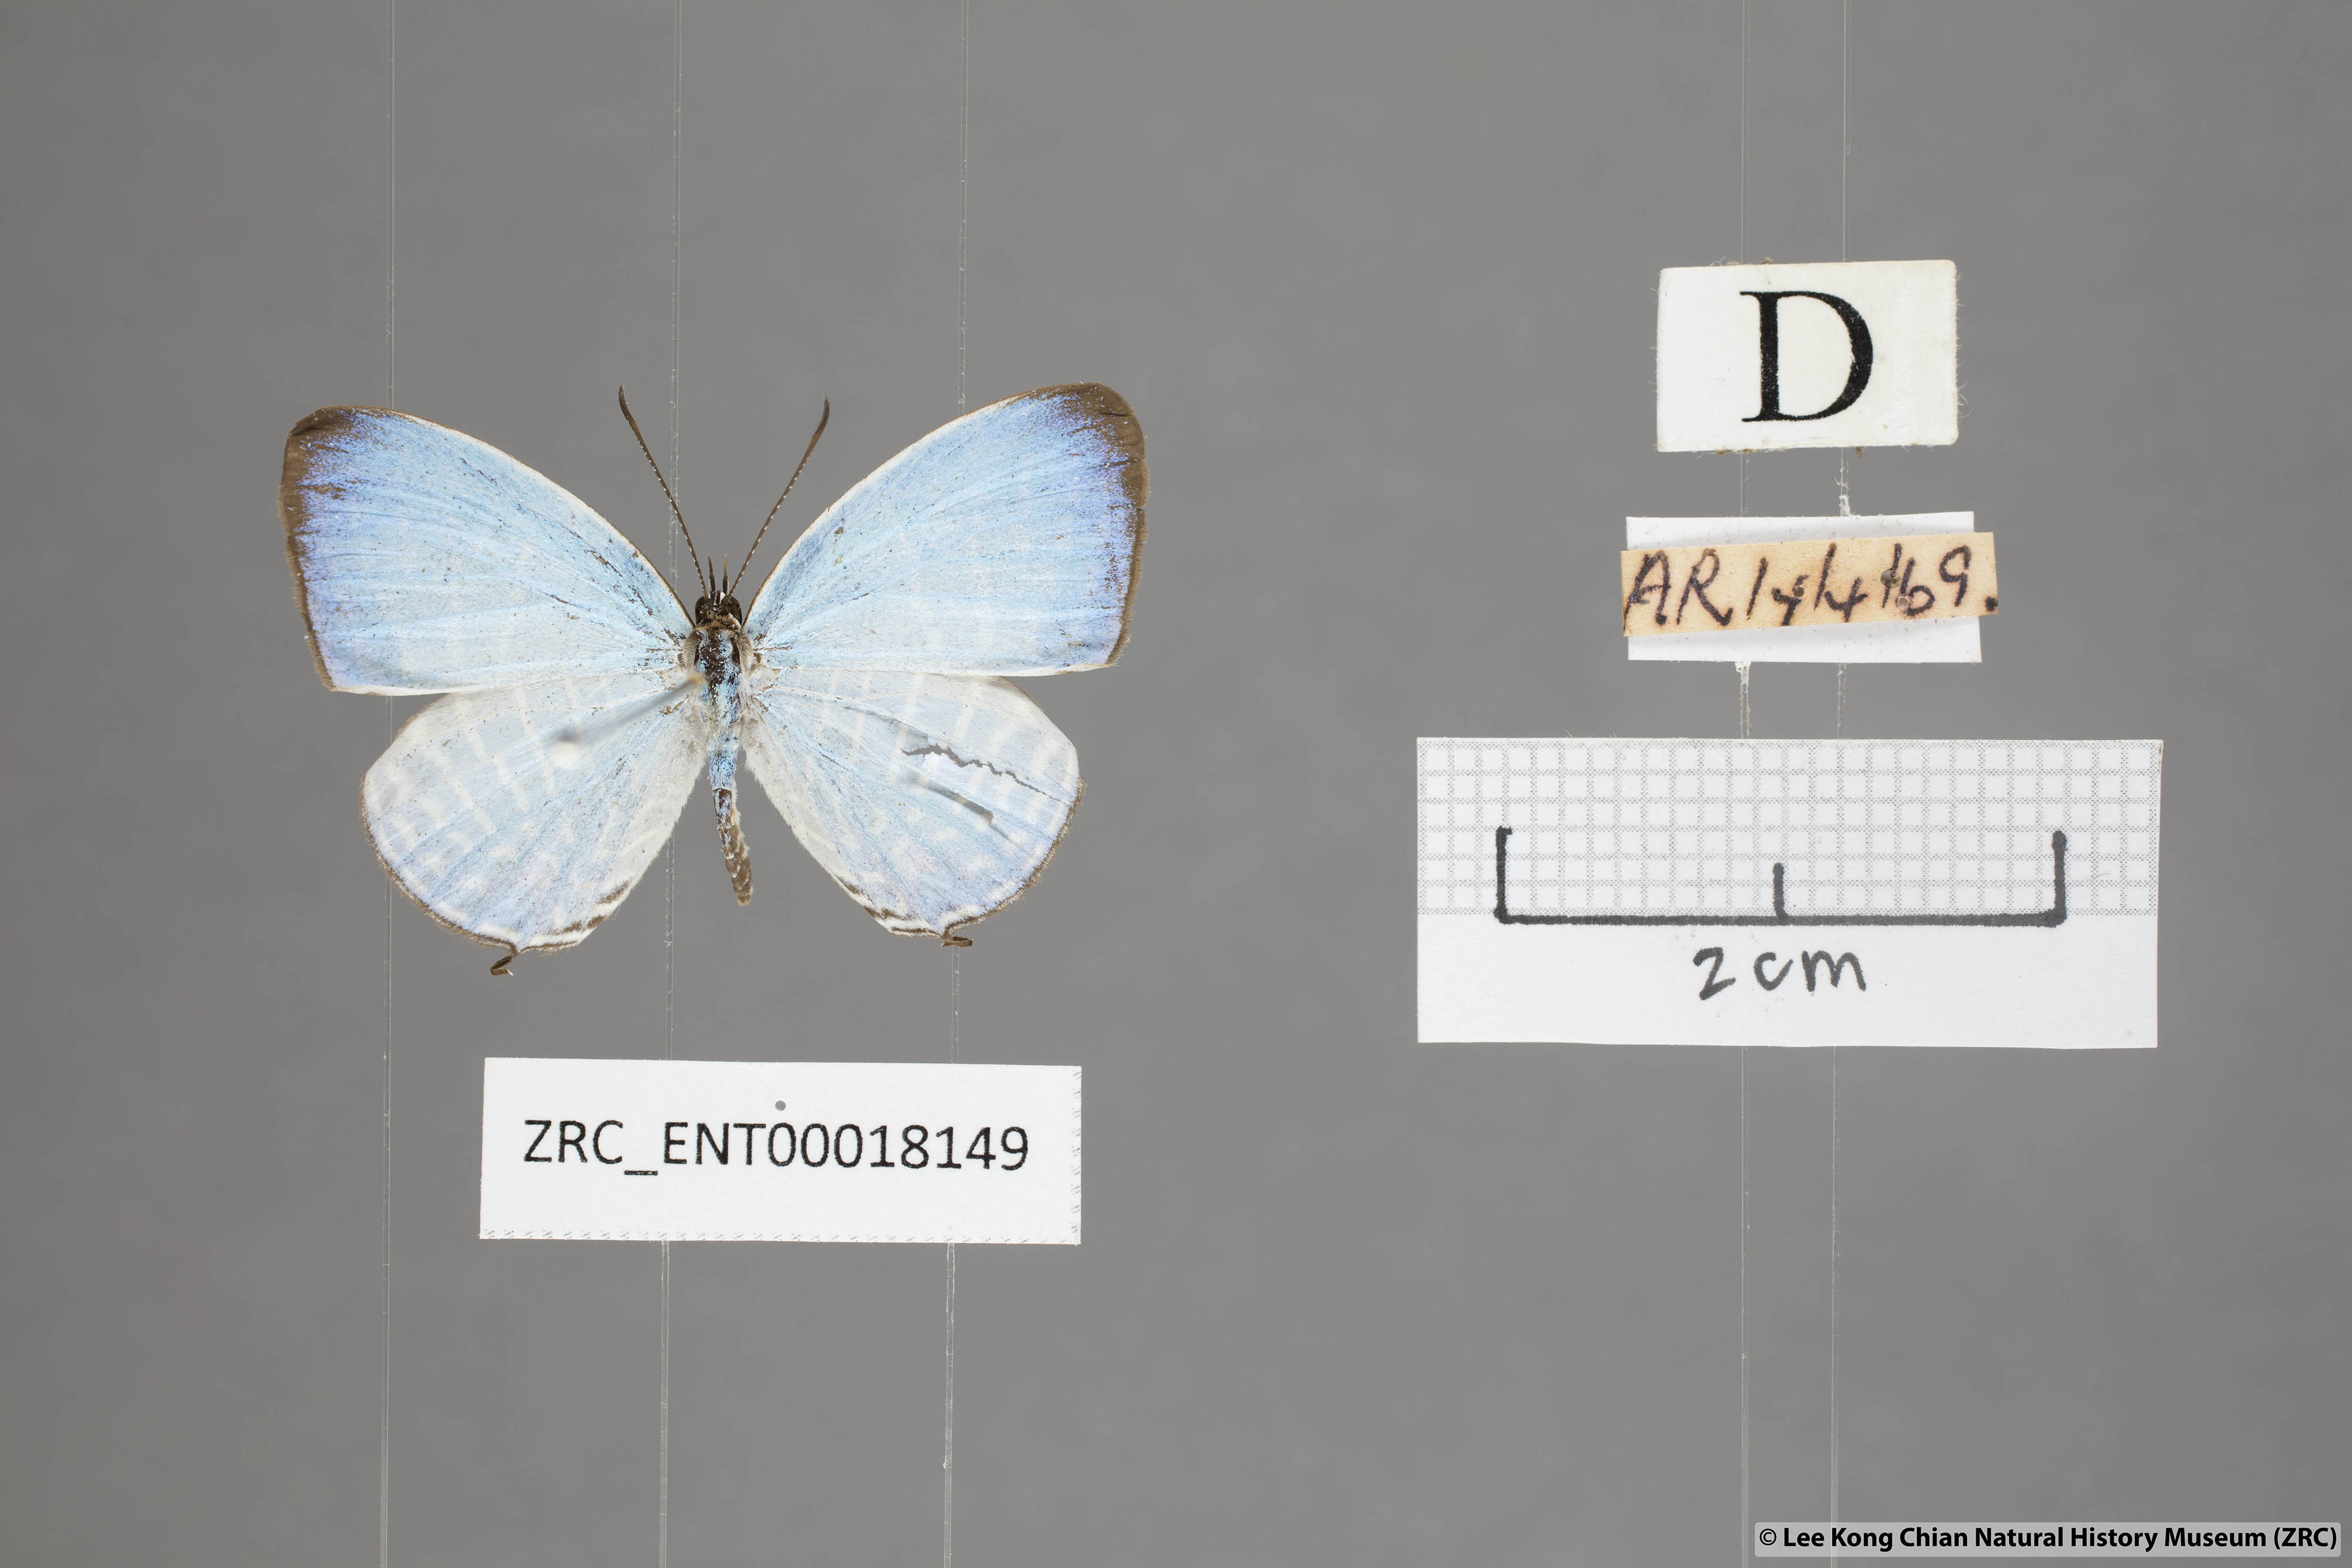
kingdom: Animalia
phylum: Arthropoda
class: Insecta
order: Lepidoptera
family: Lycaenidae
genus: Jamides
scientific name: Jamides parasaturata
